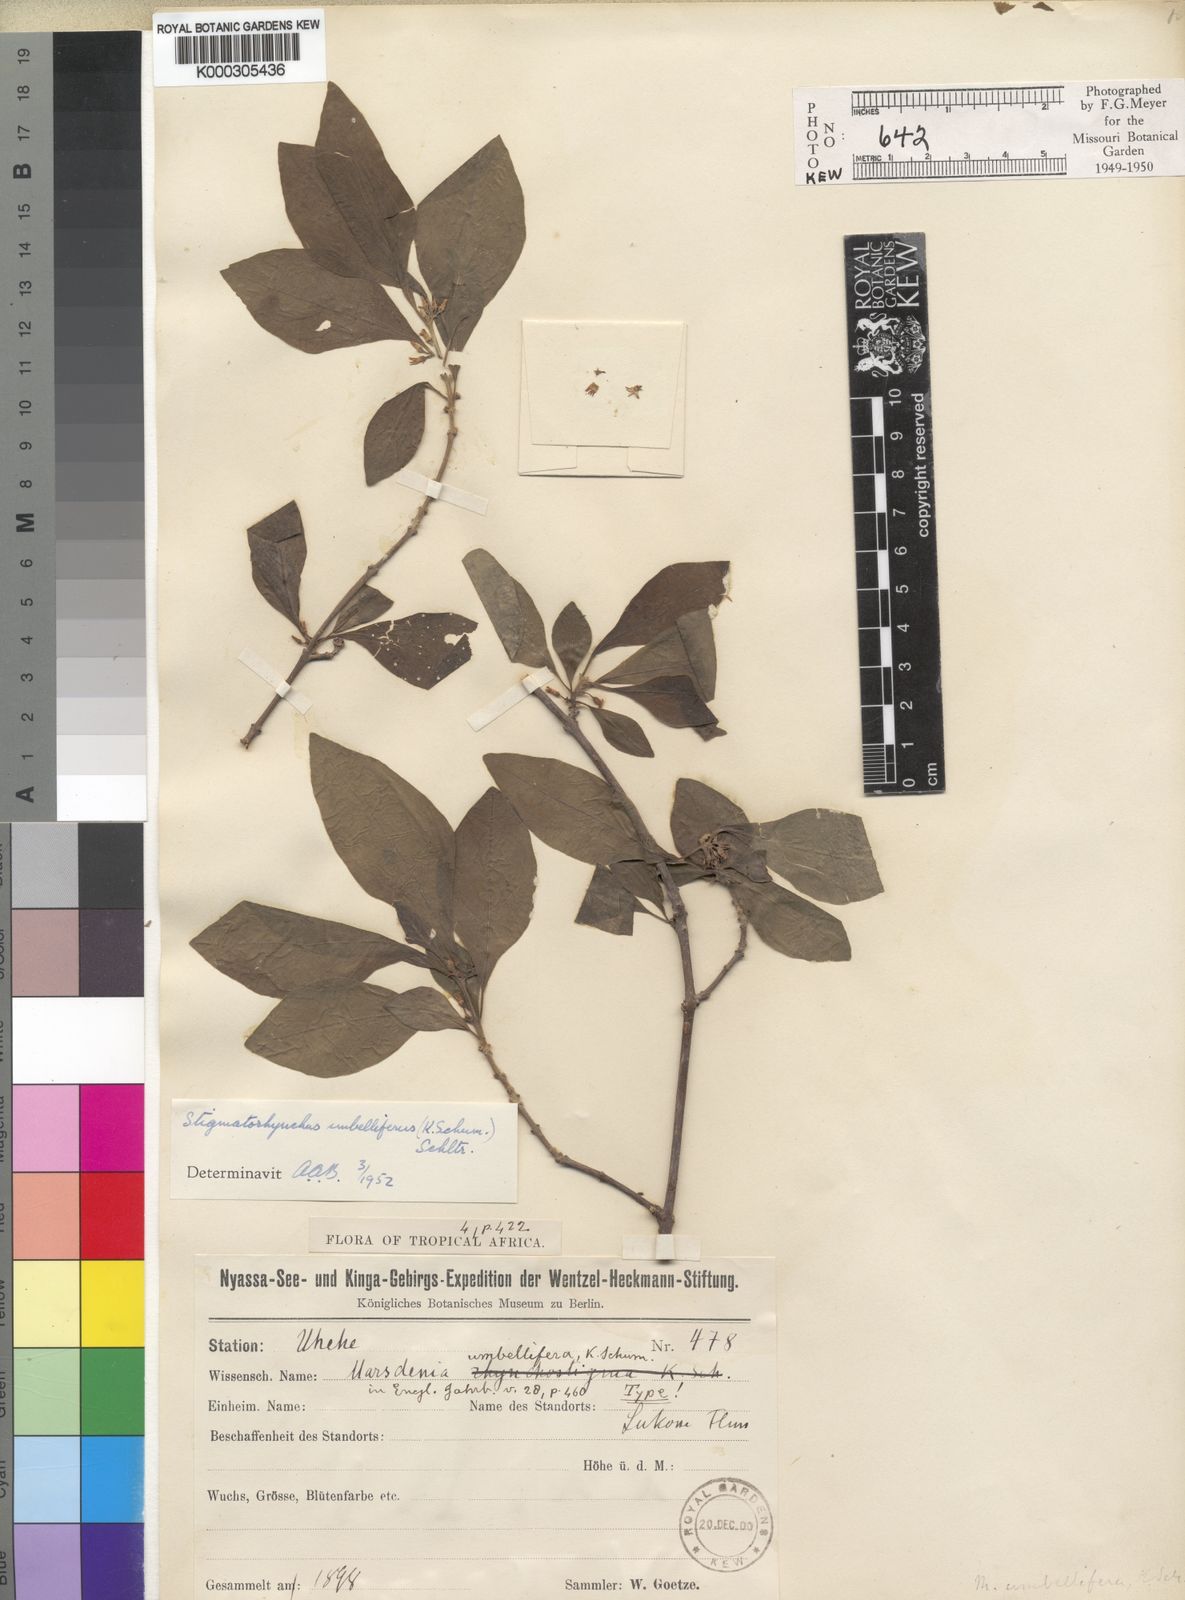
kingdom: Plantae
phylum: Tracheophyta
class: Magnoliopsida
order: Gentianales
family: Apocynaceae
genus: Stigmatorhynchus
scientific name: Stigmatorhynchus
